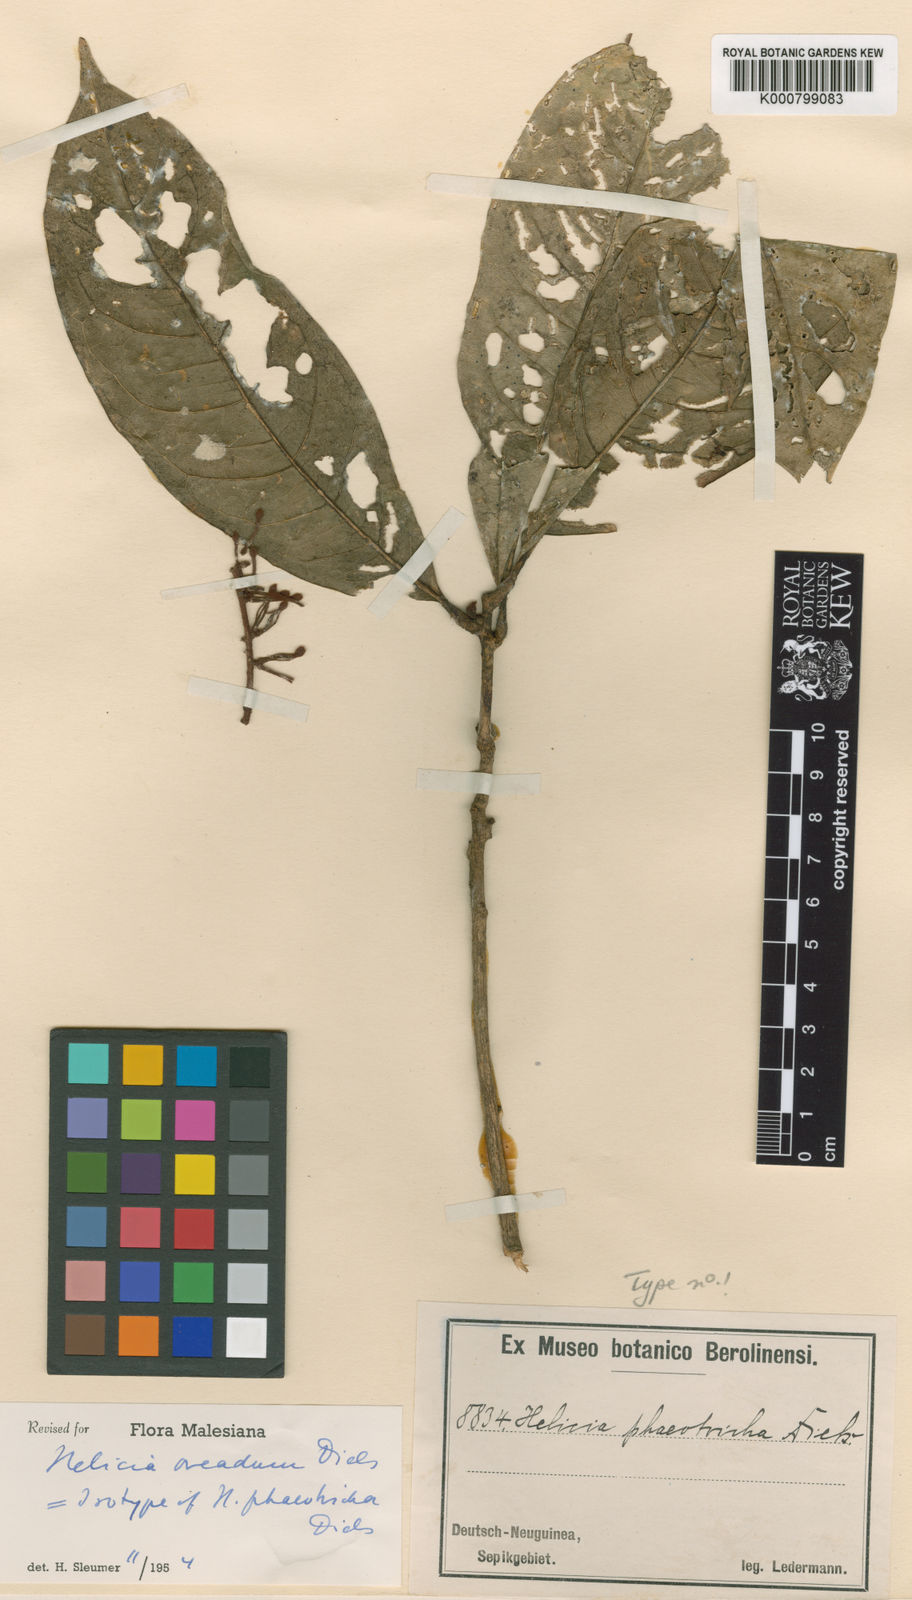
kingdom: Plantae
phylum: Tracheophyta
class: Magnoliopsida
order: Proteales
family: Proteaceae
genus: Helicia
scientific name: Helicia oreadum
